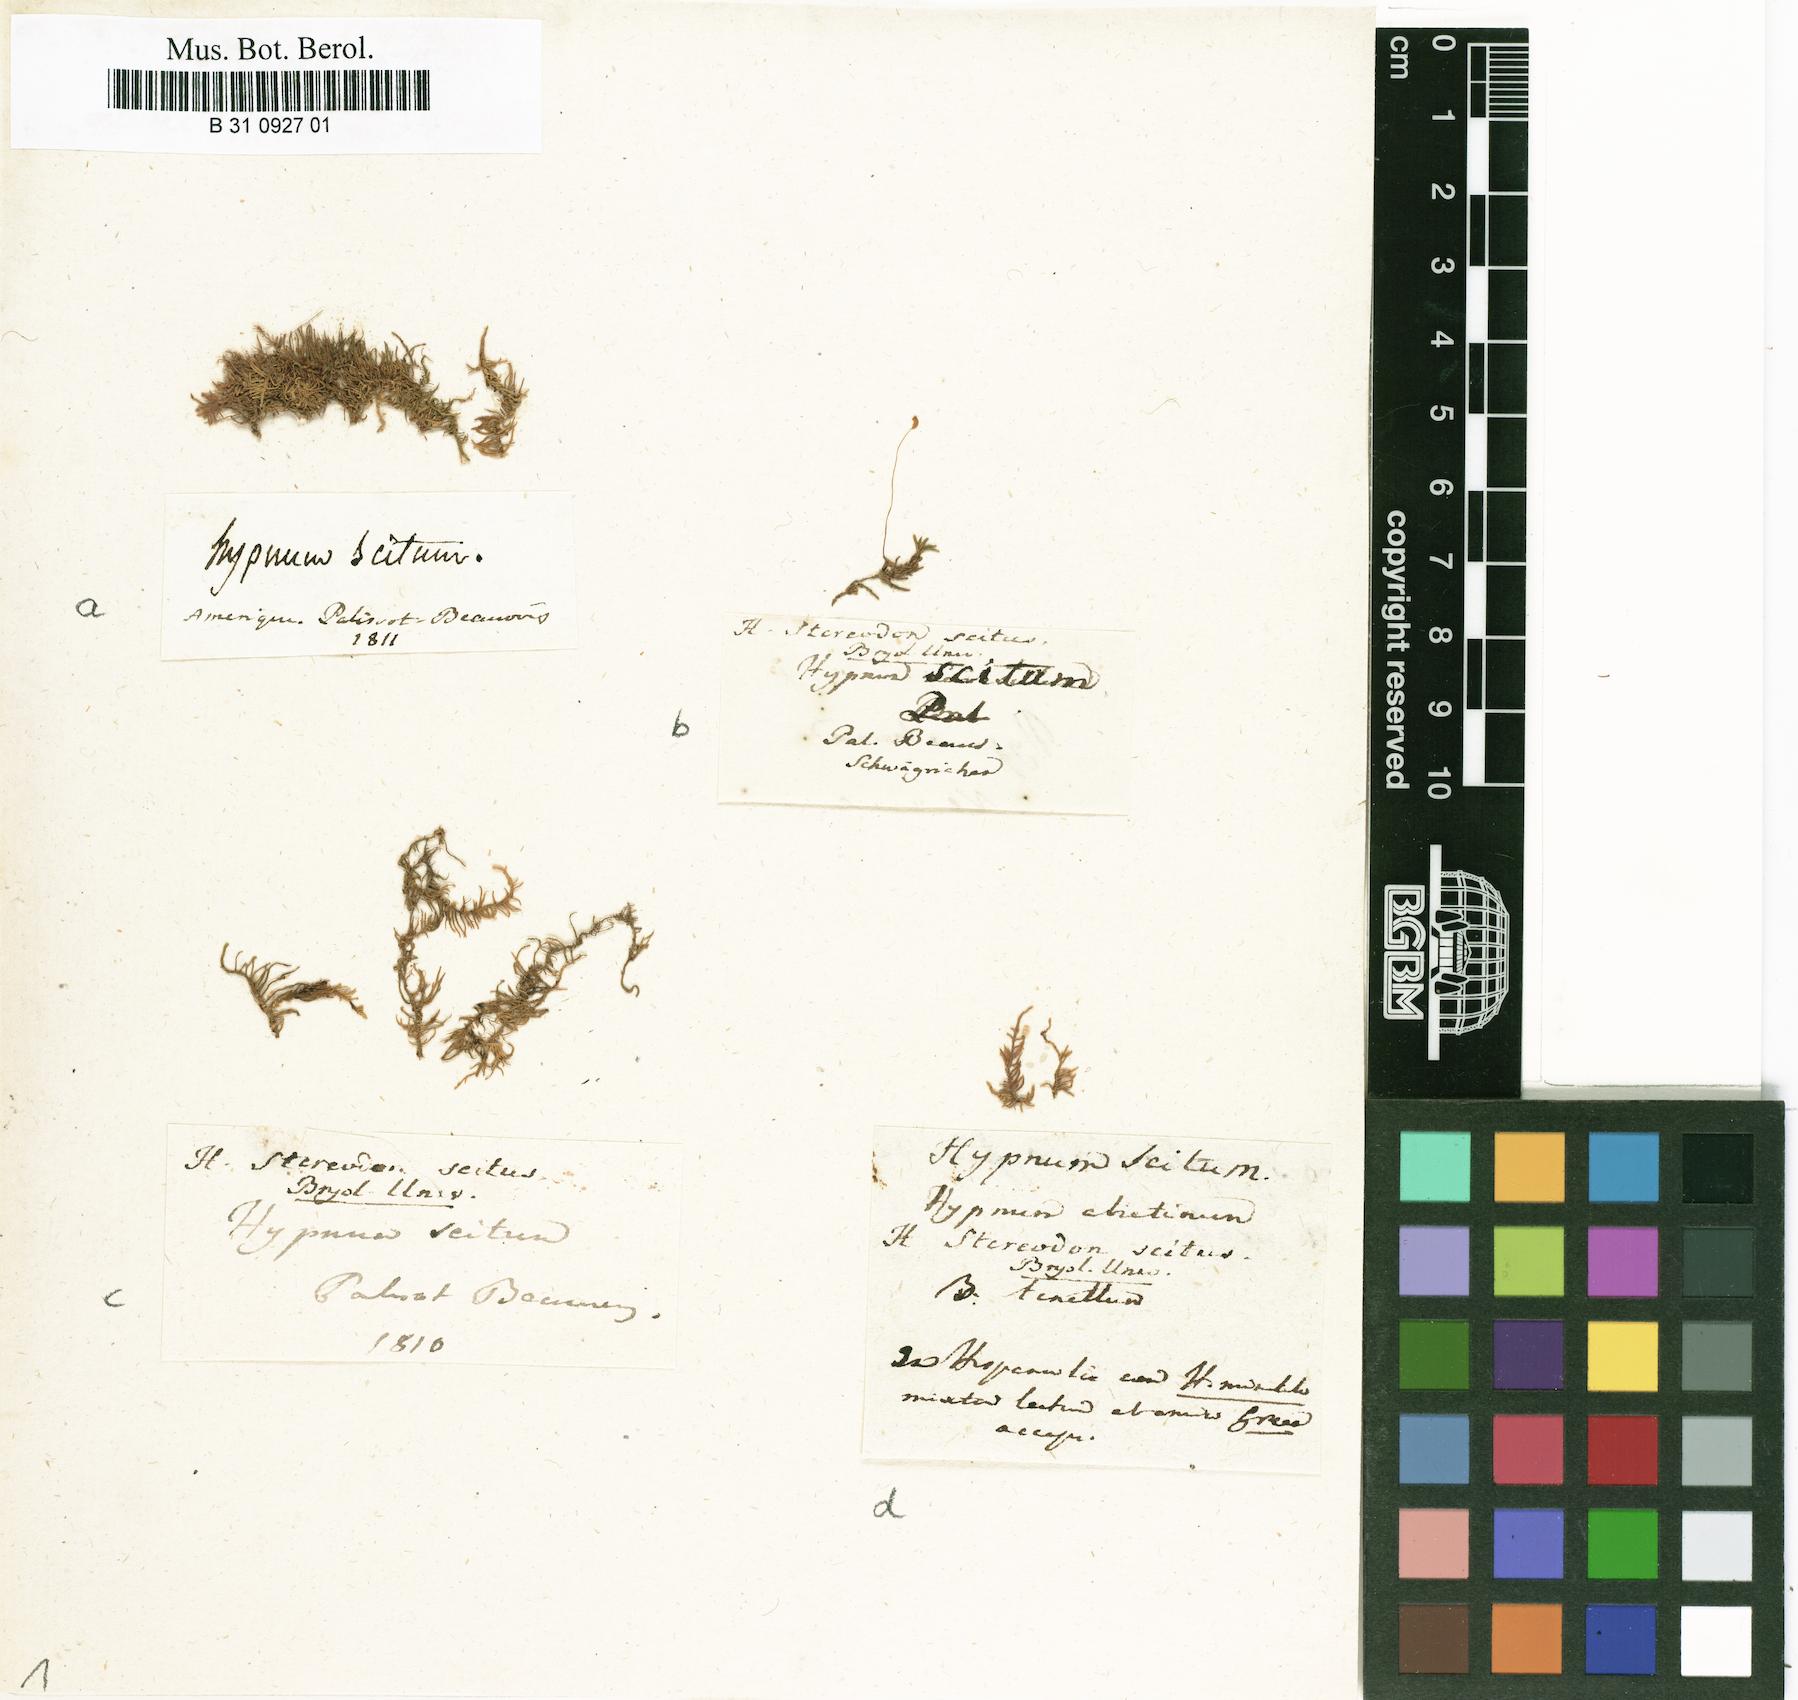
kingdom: Plantae
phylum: Bryophyta
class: Bryopsida
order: Hypnales
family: Thuidiaceae
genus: Rauiella
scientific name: Rauiella scita
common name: Smaller fern moss
